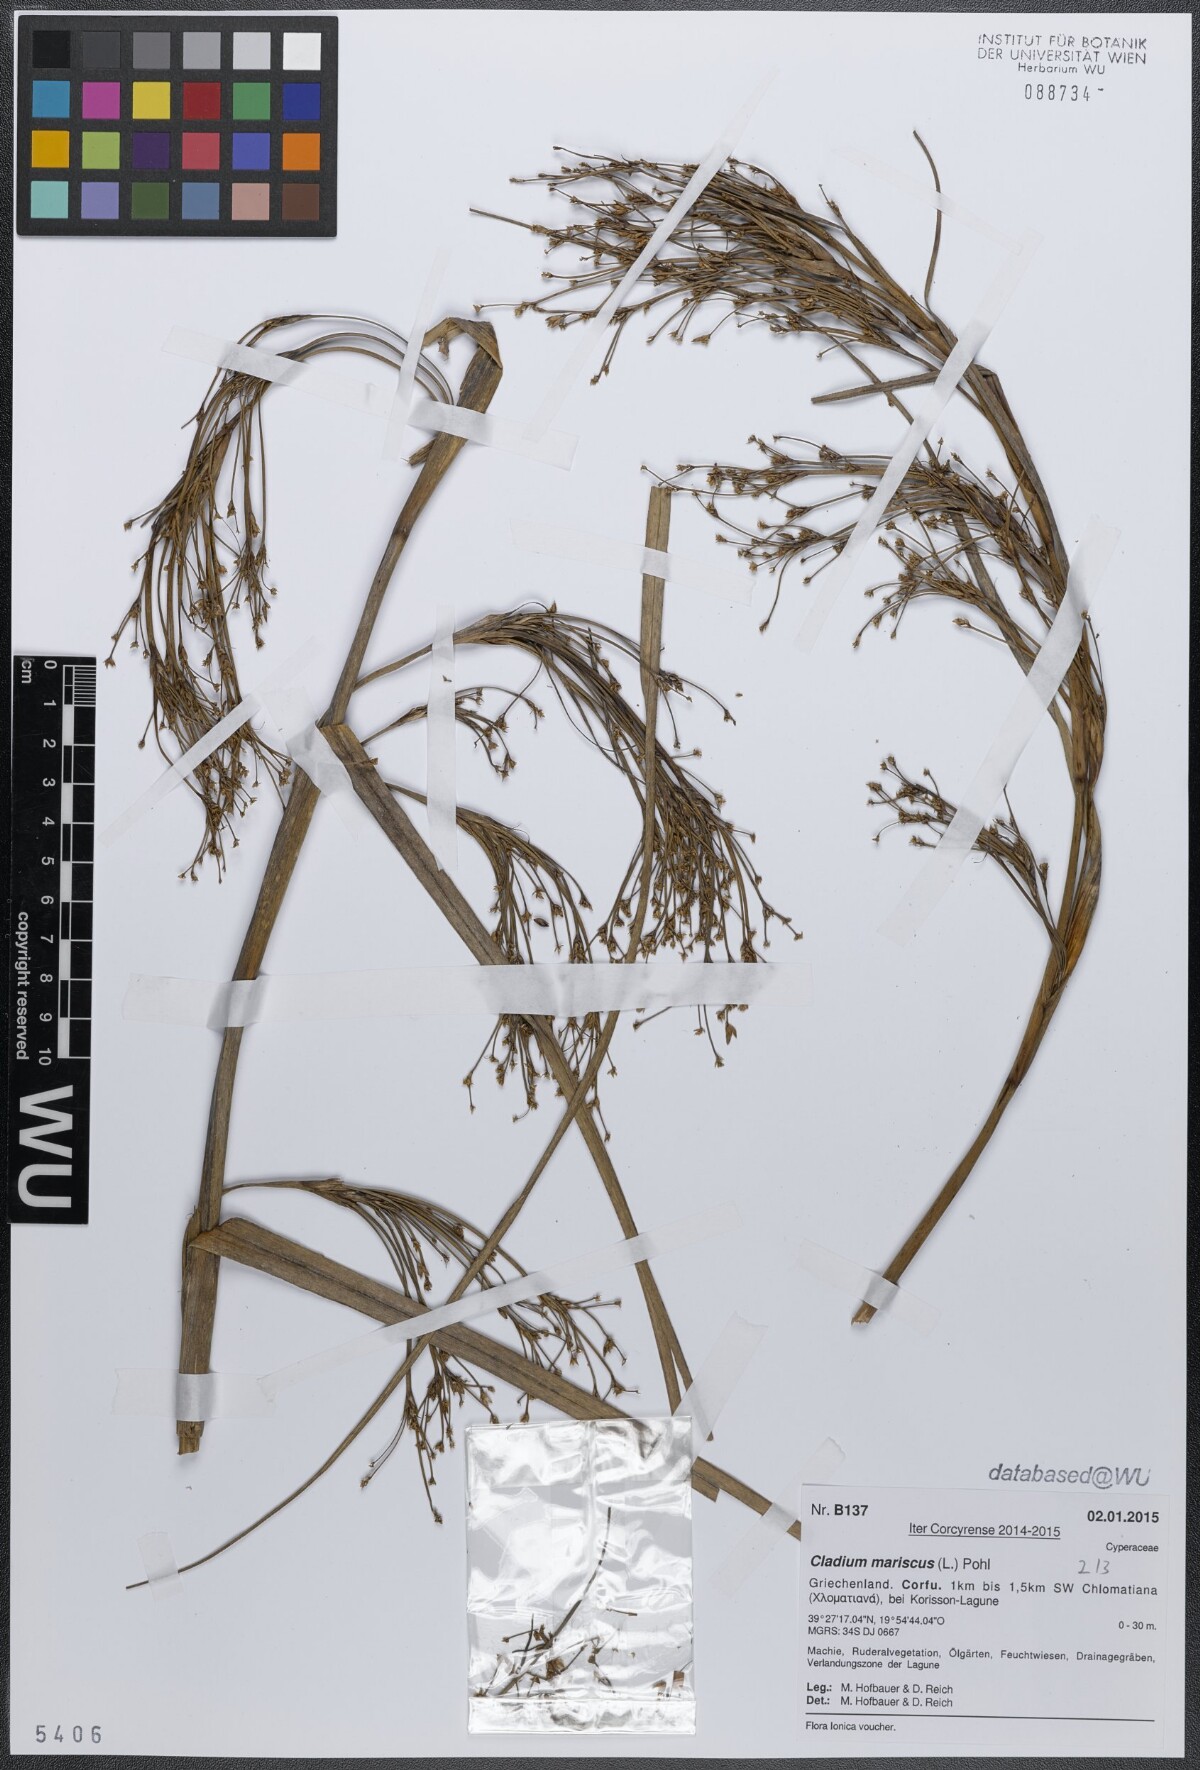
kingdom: Plantae
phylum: Tracheophyta
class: Liliopsida
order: Poales
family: Cyperaceae
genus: Cladium
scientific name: Cladium mariscus
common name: Great fen-sedge
